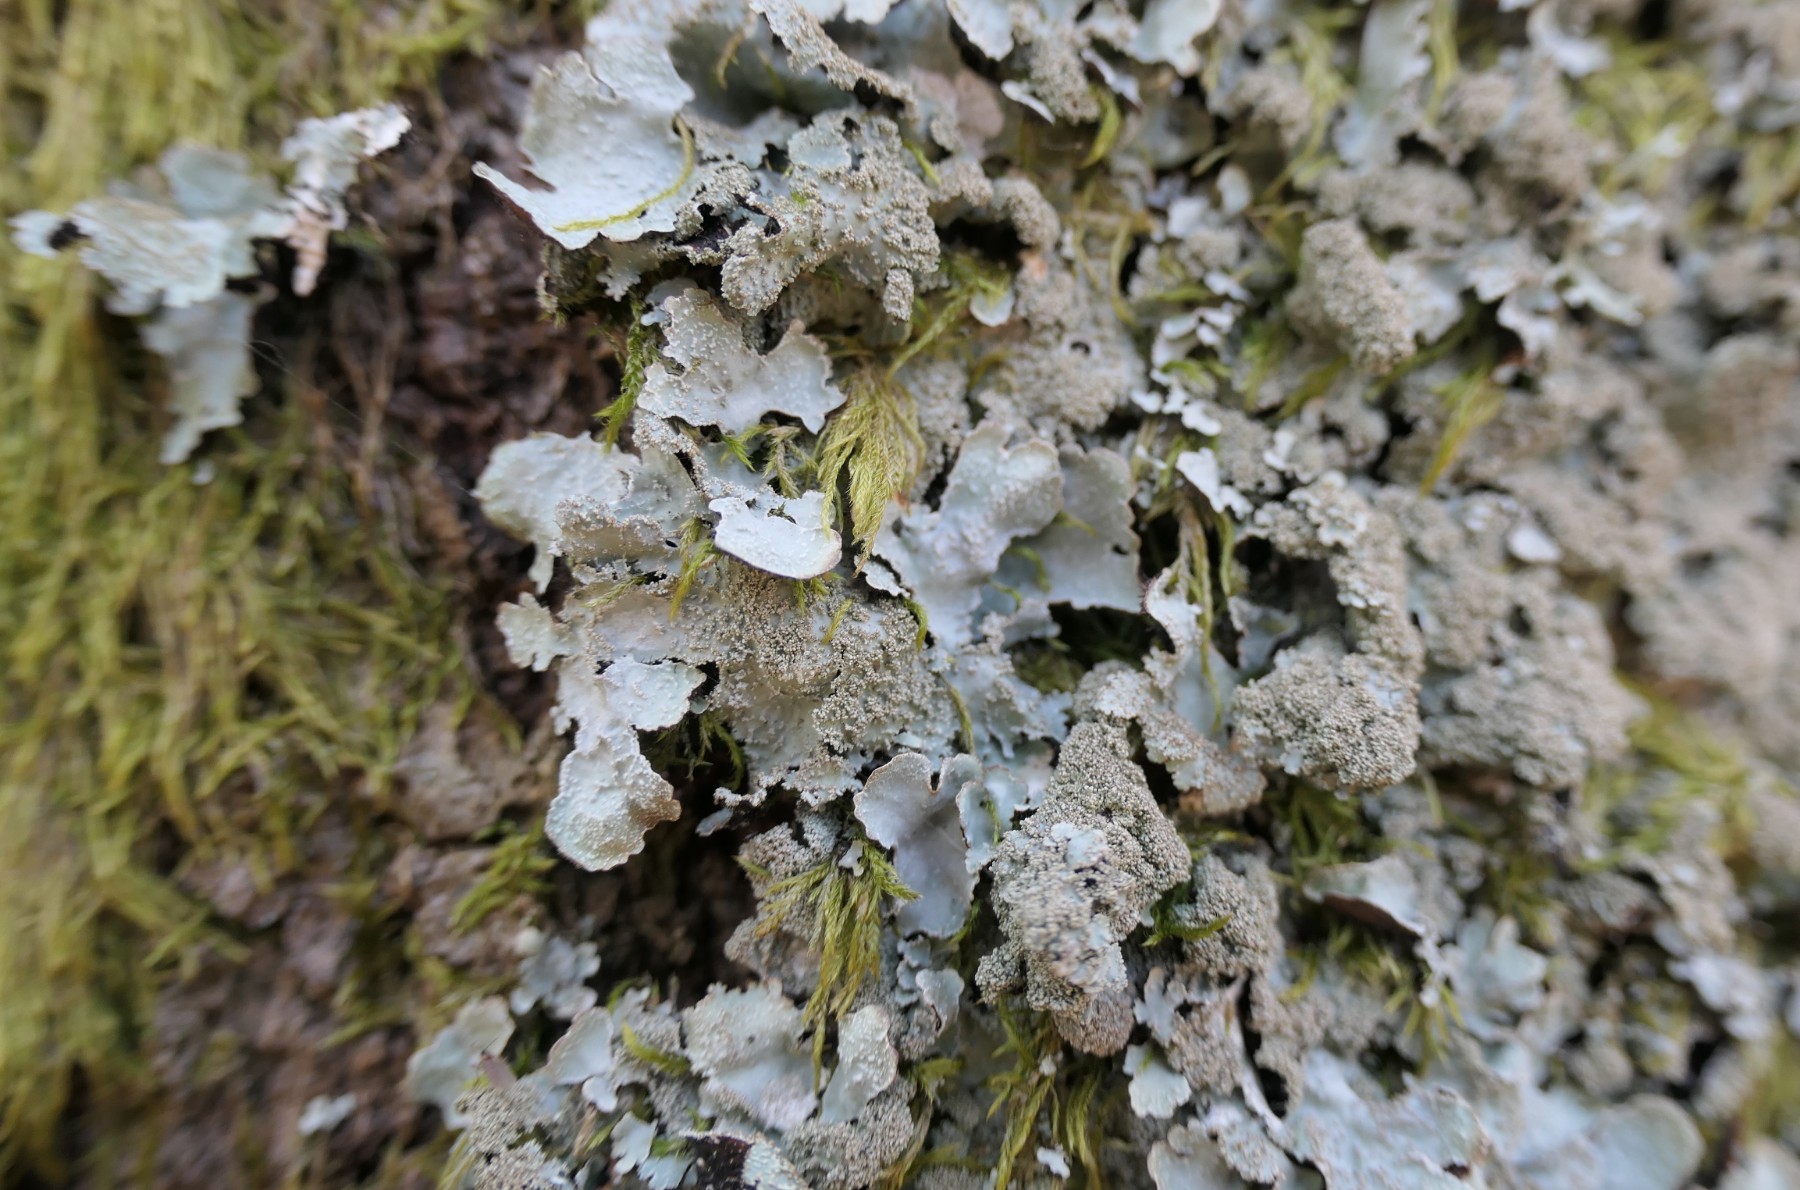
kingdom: Fungi
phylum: Ascomycota
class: Lecanoromycetes
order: Lecanorales
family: Parmeliaceae
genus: Parmelia
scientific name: Parmelia saxatilis
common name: farve-skållav
